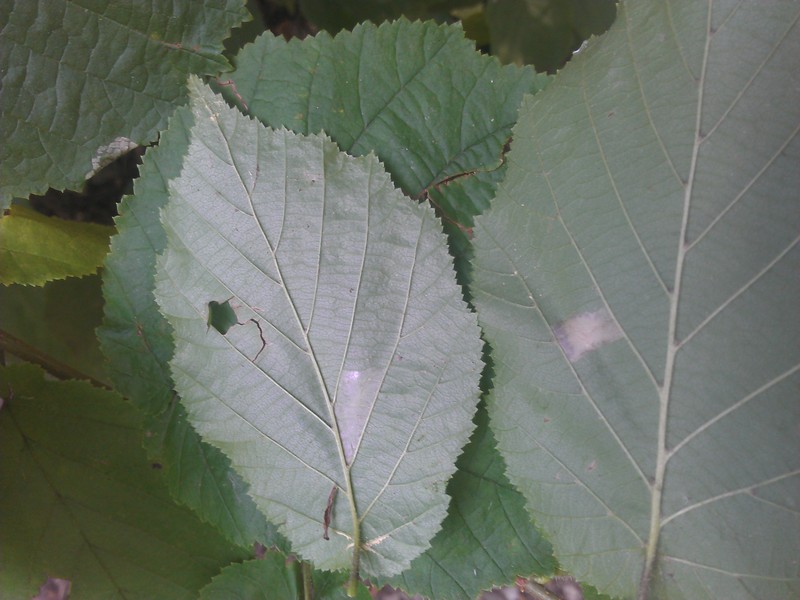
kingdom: Plantae
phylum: Tracheophyta
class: Magnoliopsida
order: Fagales
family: Betulaceae
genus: Corylus
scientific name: Corylus avellana
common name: European hazel
